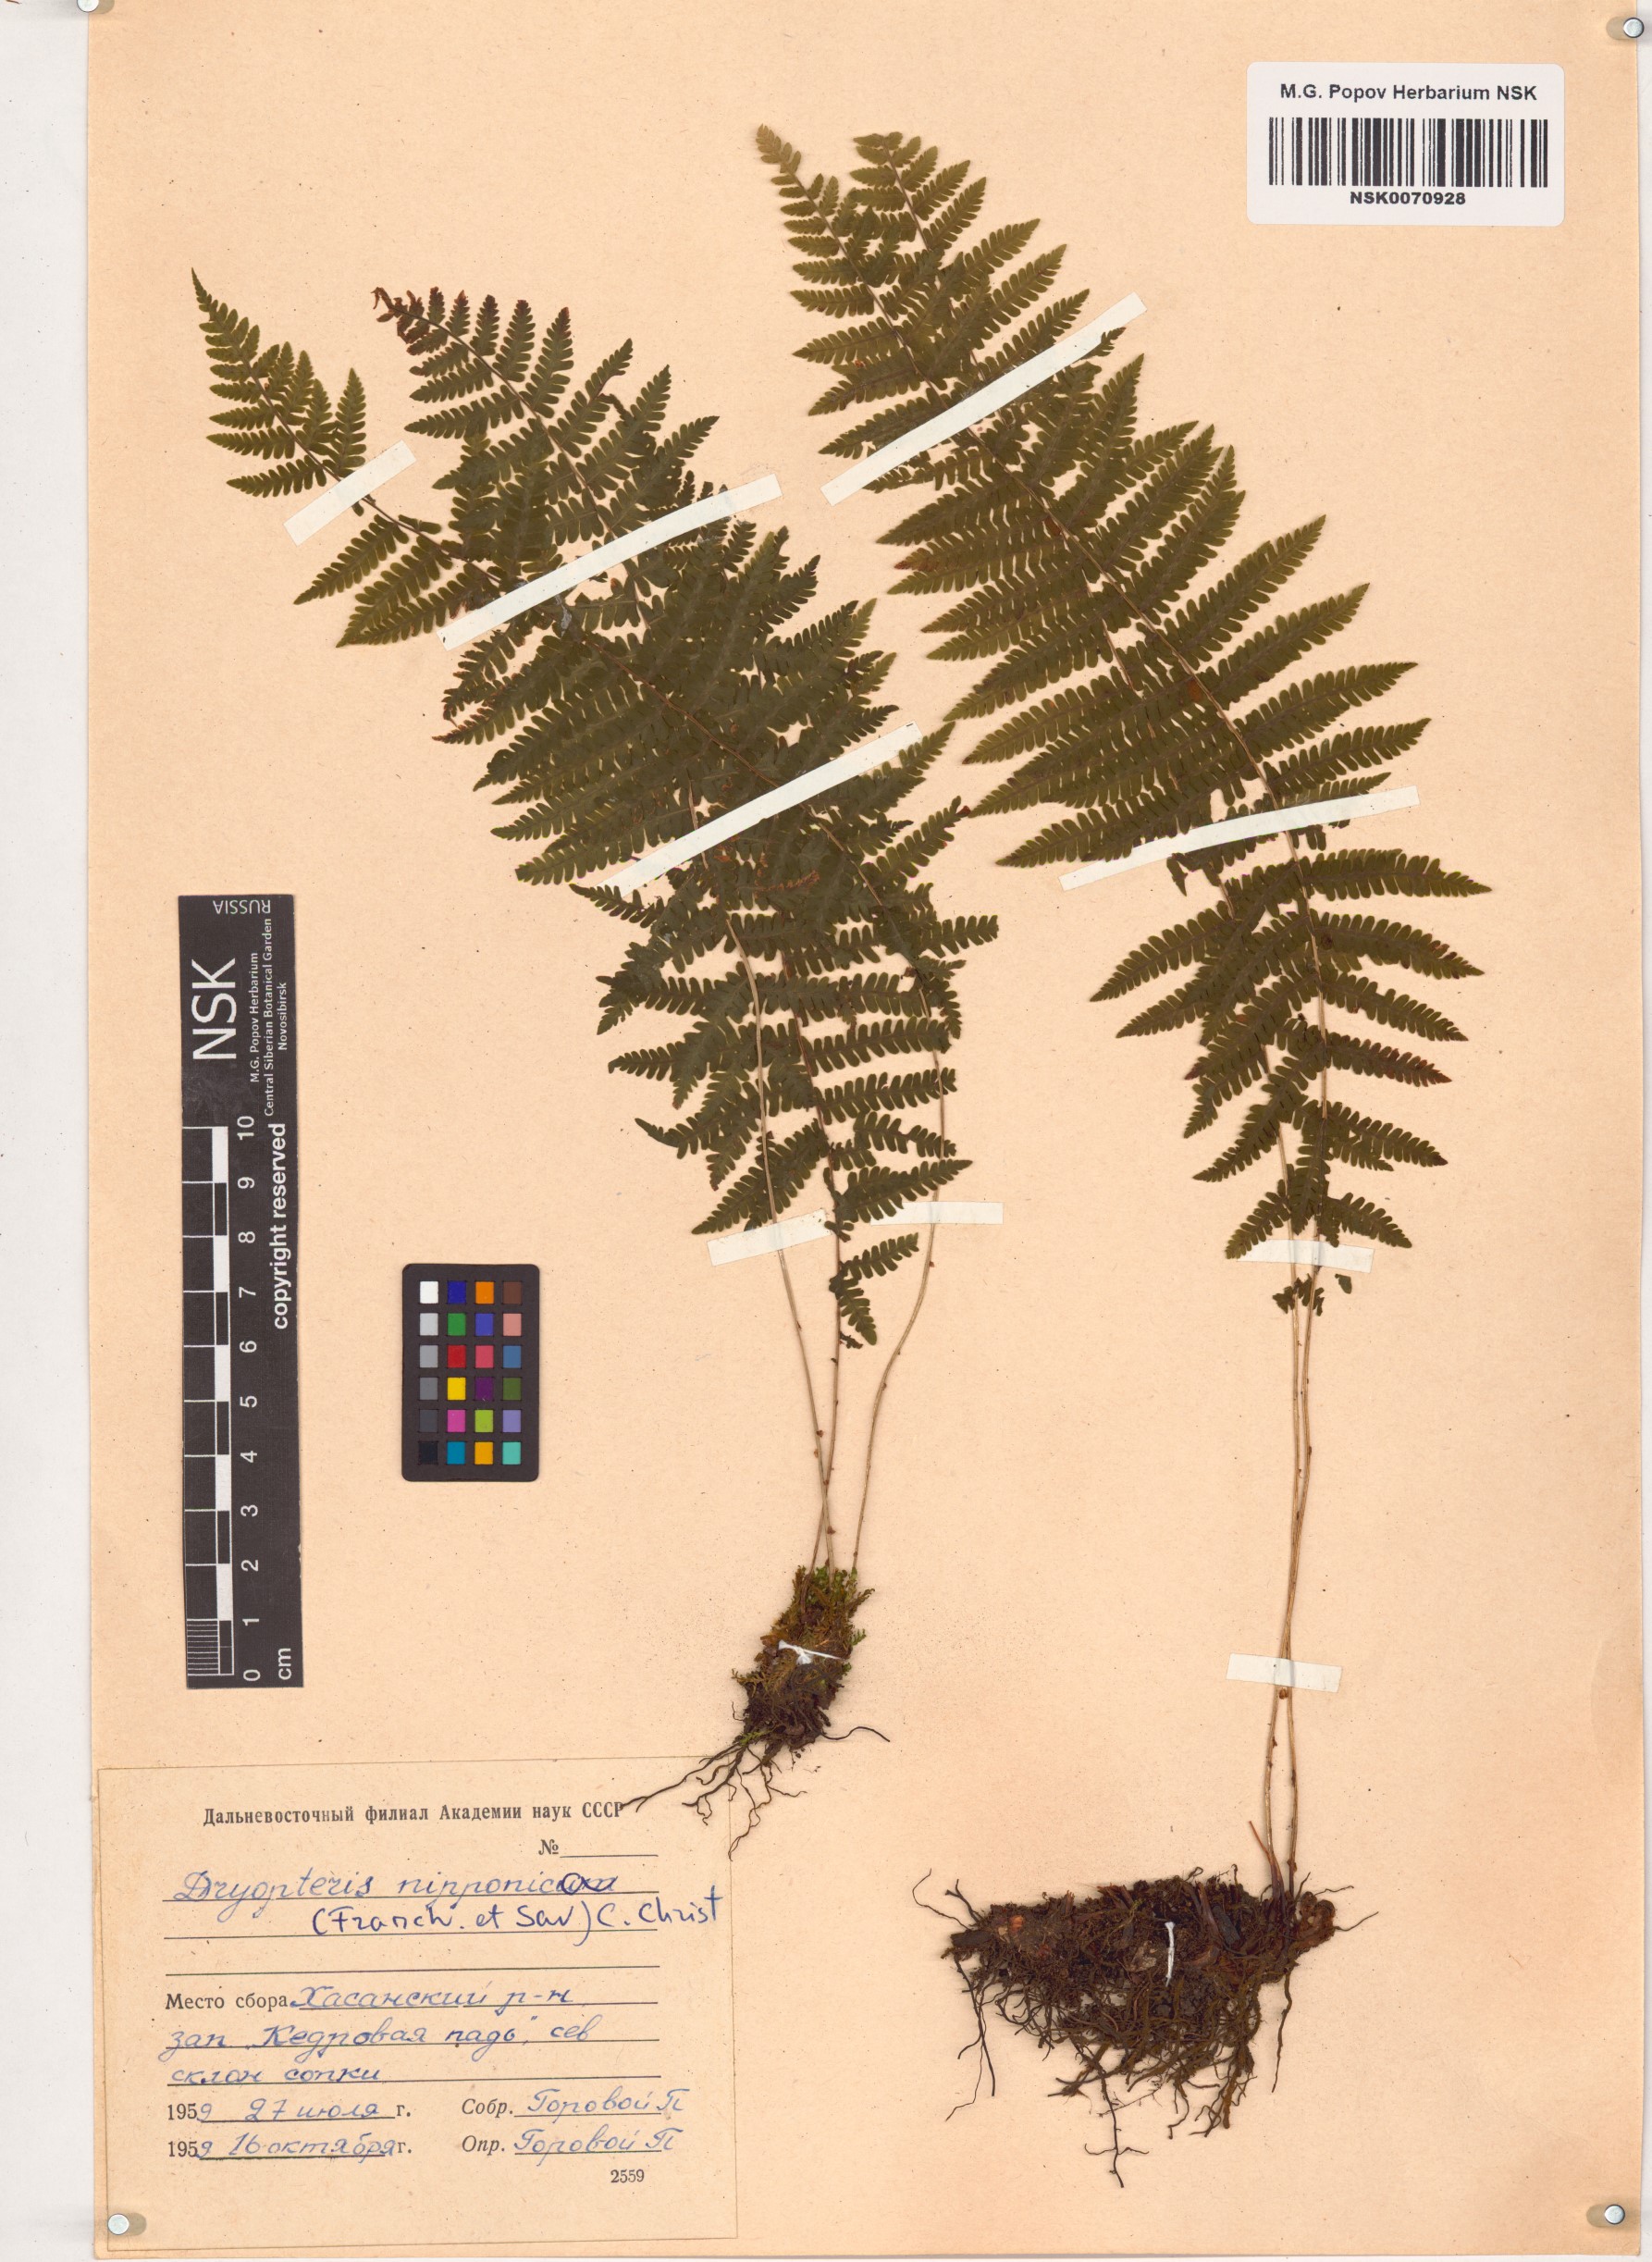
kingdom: Plantae
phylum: Tracheophyta
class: Polypodiopsida
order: Polypodiales
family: Thelypteridaceae
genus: Coryphopteris
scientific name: Coryphopteris nipponica
